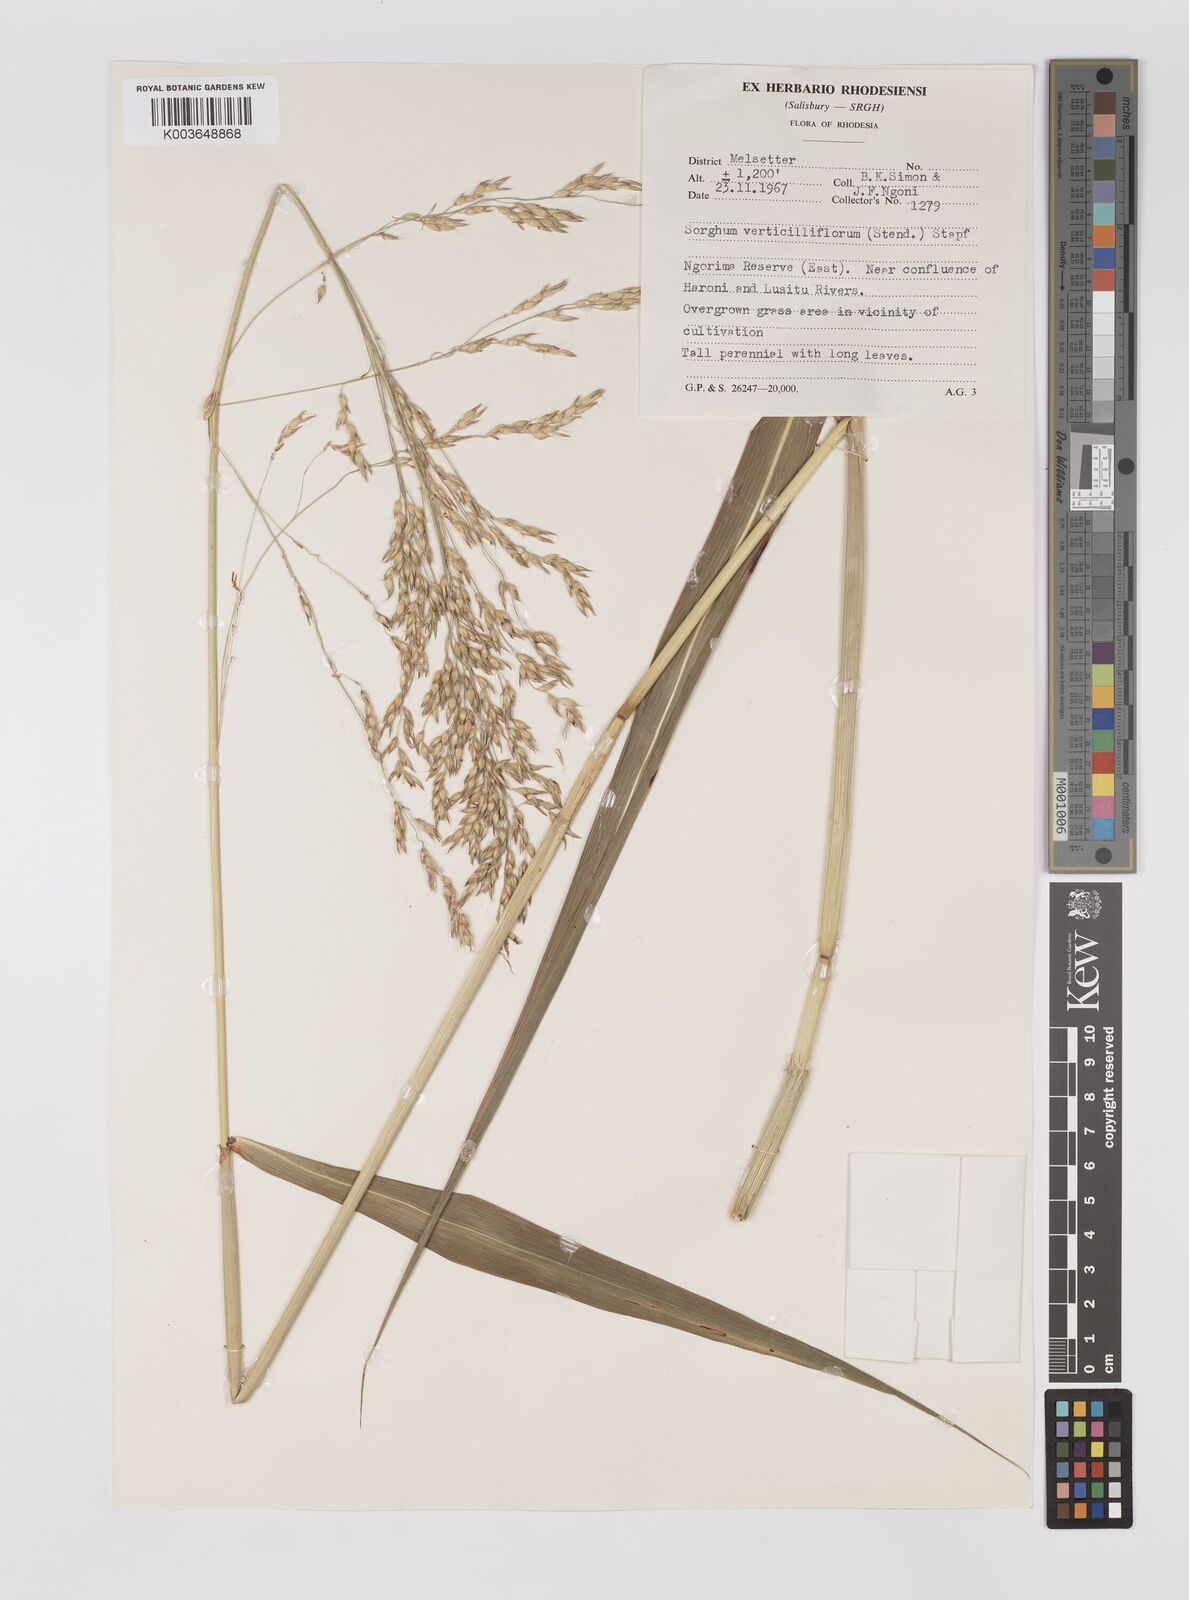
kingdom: Plantae
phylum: Tracheophyta
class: Liliopsida
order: Poales
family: Poaceae
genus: Sorghum
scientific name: Sorghum arundinaceum
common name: Sorghum
